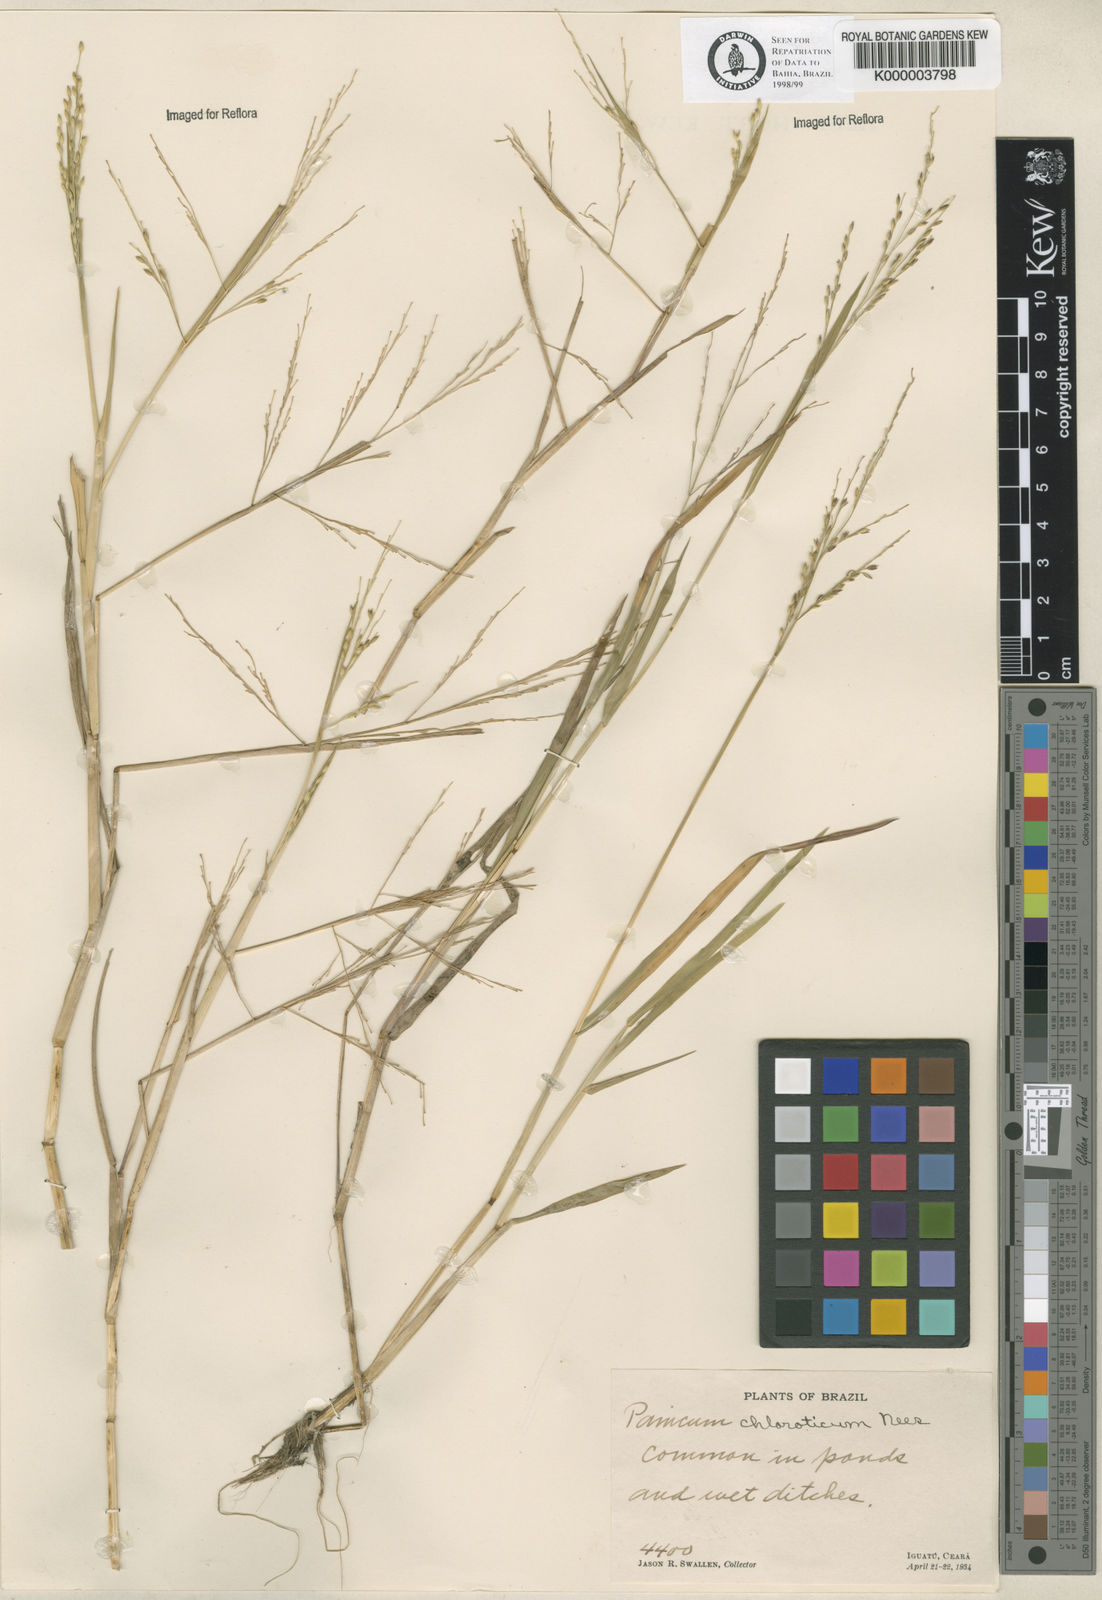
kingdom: Plantae
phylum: Tracheophyta
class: Liliopsida
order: Poales
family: Poaceae
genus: Panicum
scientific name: Panicum dichotomiflorum
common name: Autumn millet
